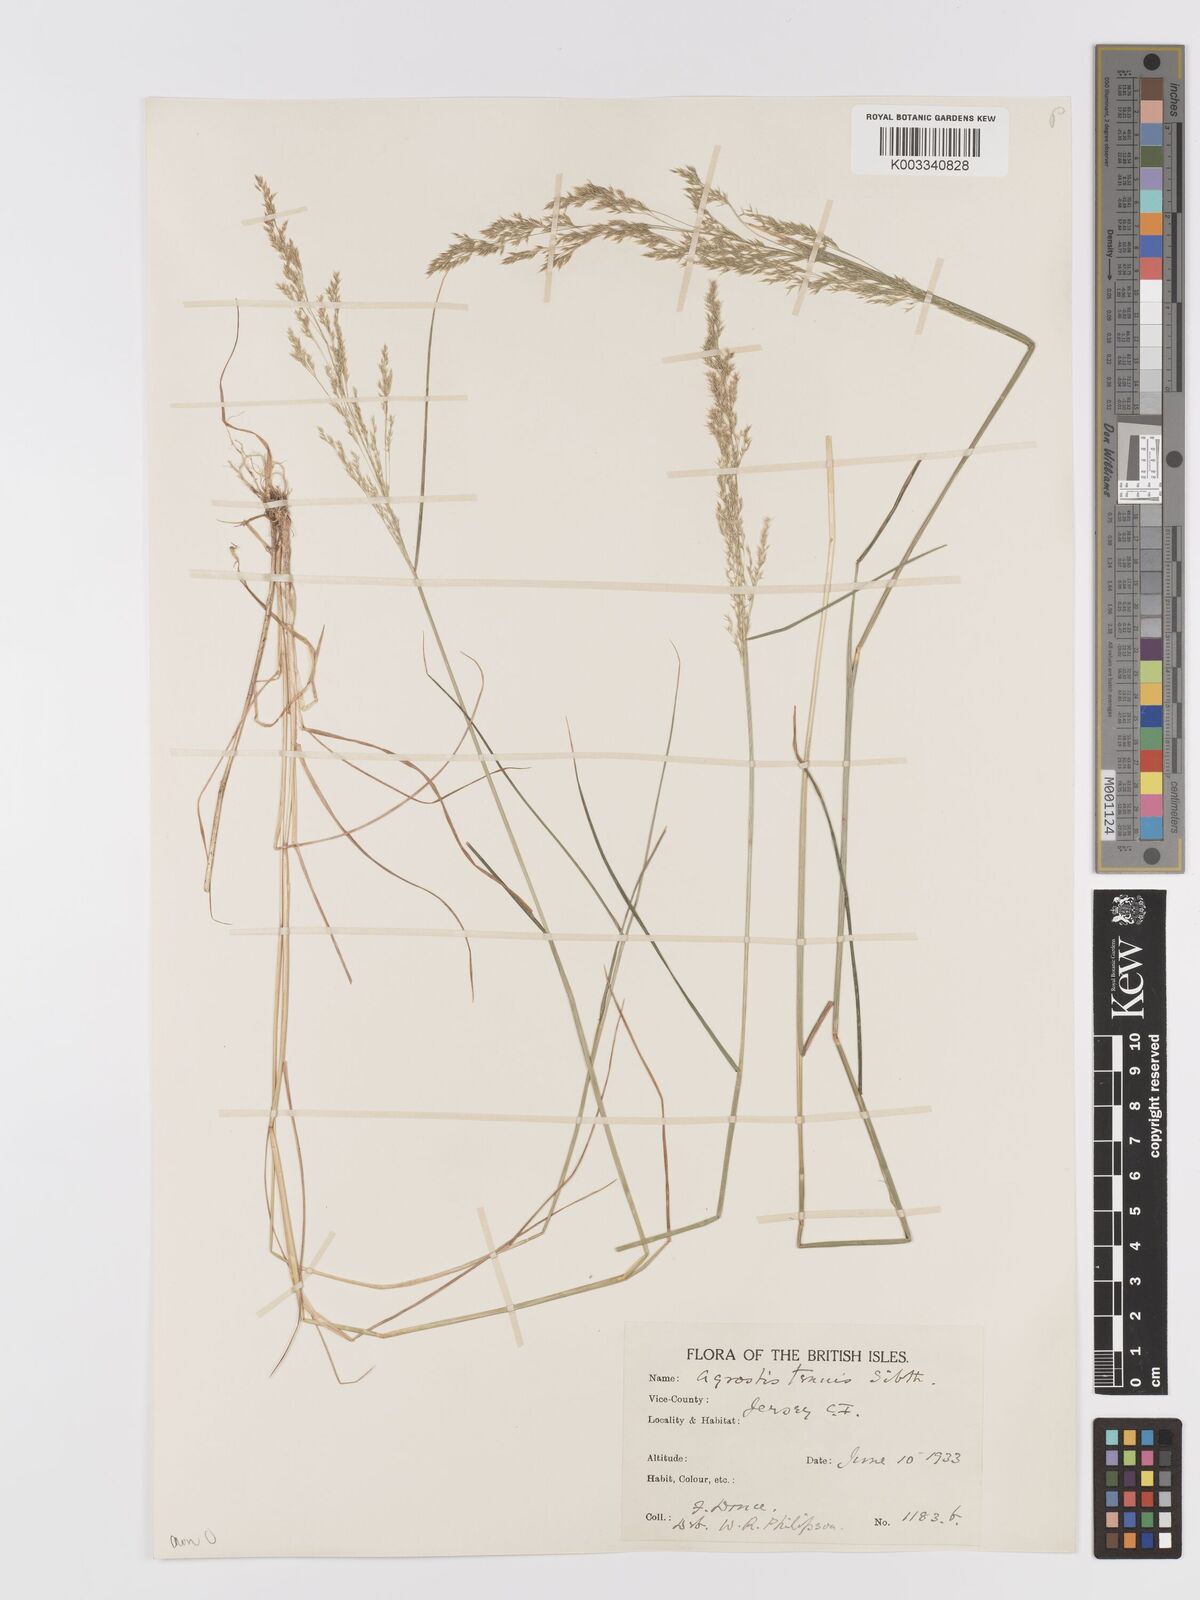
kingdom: Plantae
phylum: Tracheophyta
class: Liliopsida
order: Poales
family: Poaceae
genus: Agrostis
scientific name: Agrostis capillaris
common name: Colonial bentgrass
